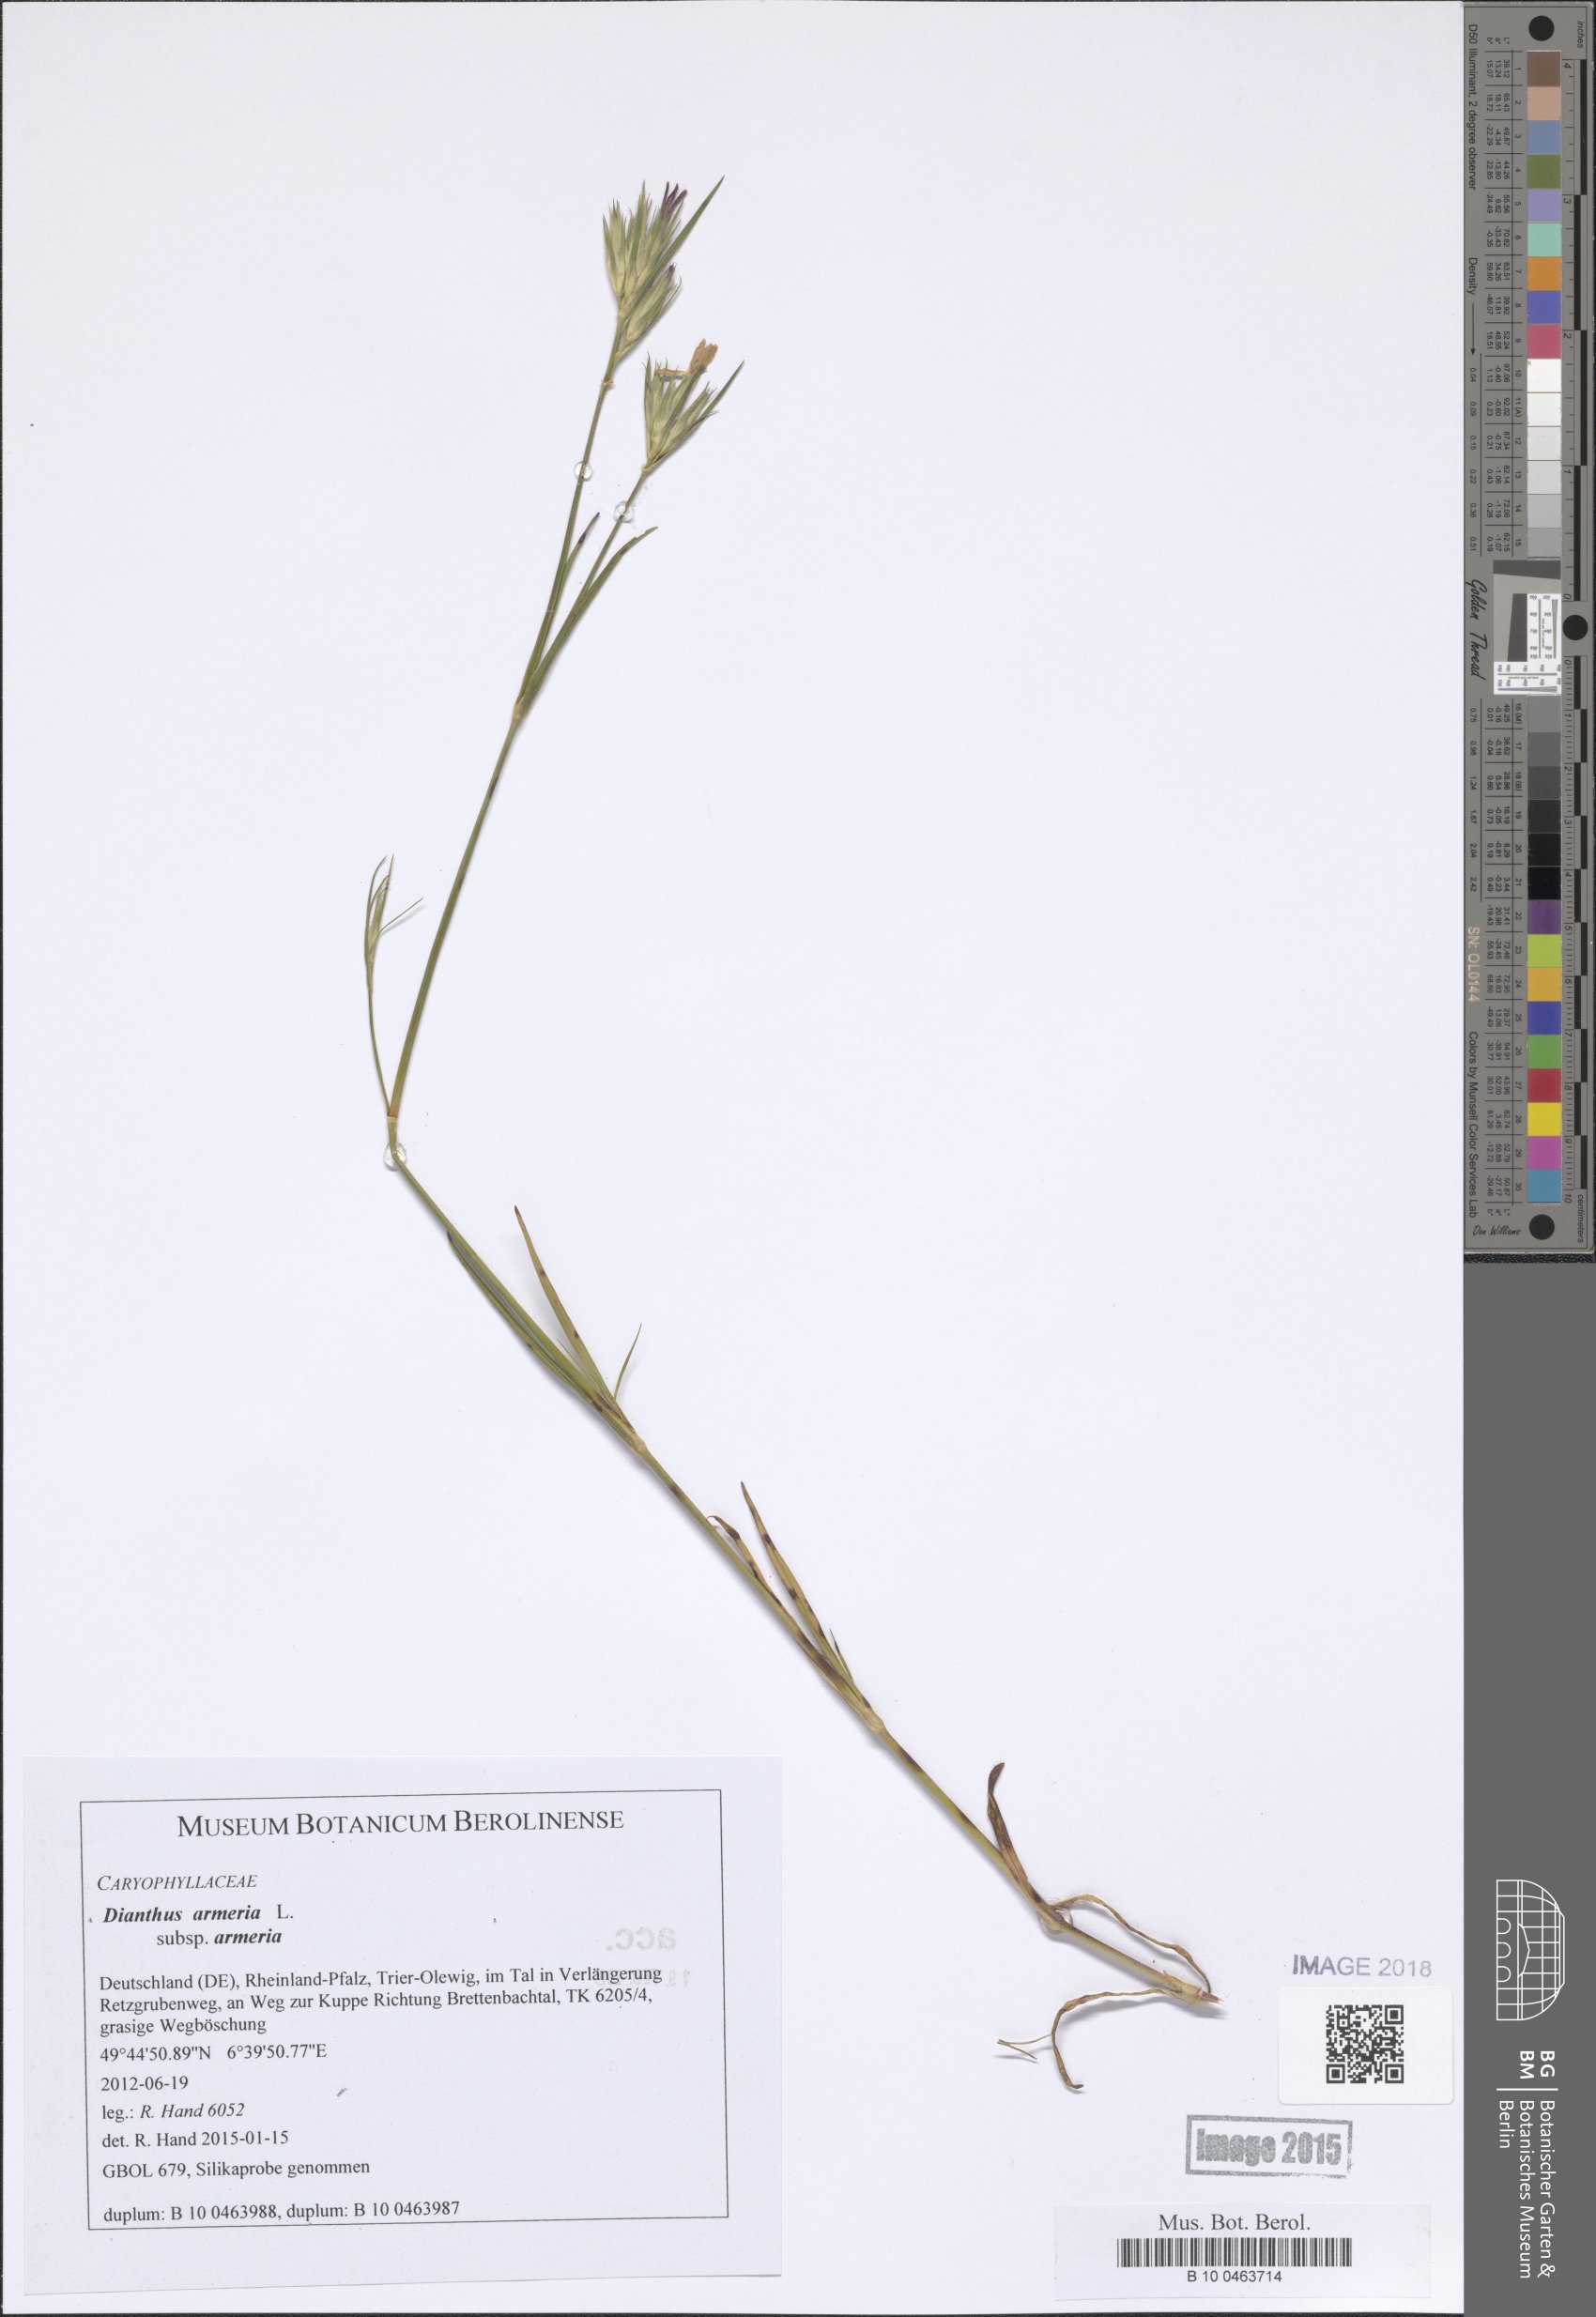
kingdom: Plantae
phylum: Tracheophyta
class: Magnoliopsida
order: Caryophyllales
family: Caryophyllaceae
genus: Dianthus
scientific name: Dianthus armeria
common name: Deptford pink
